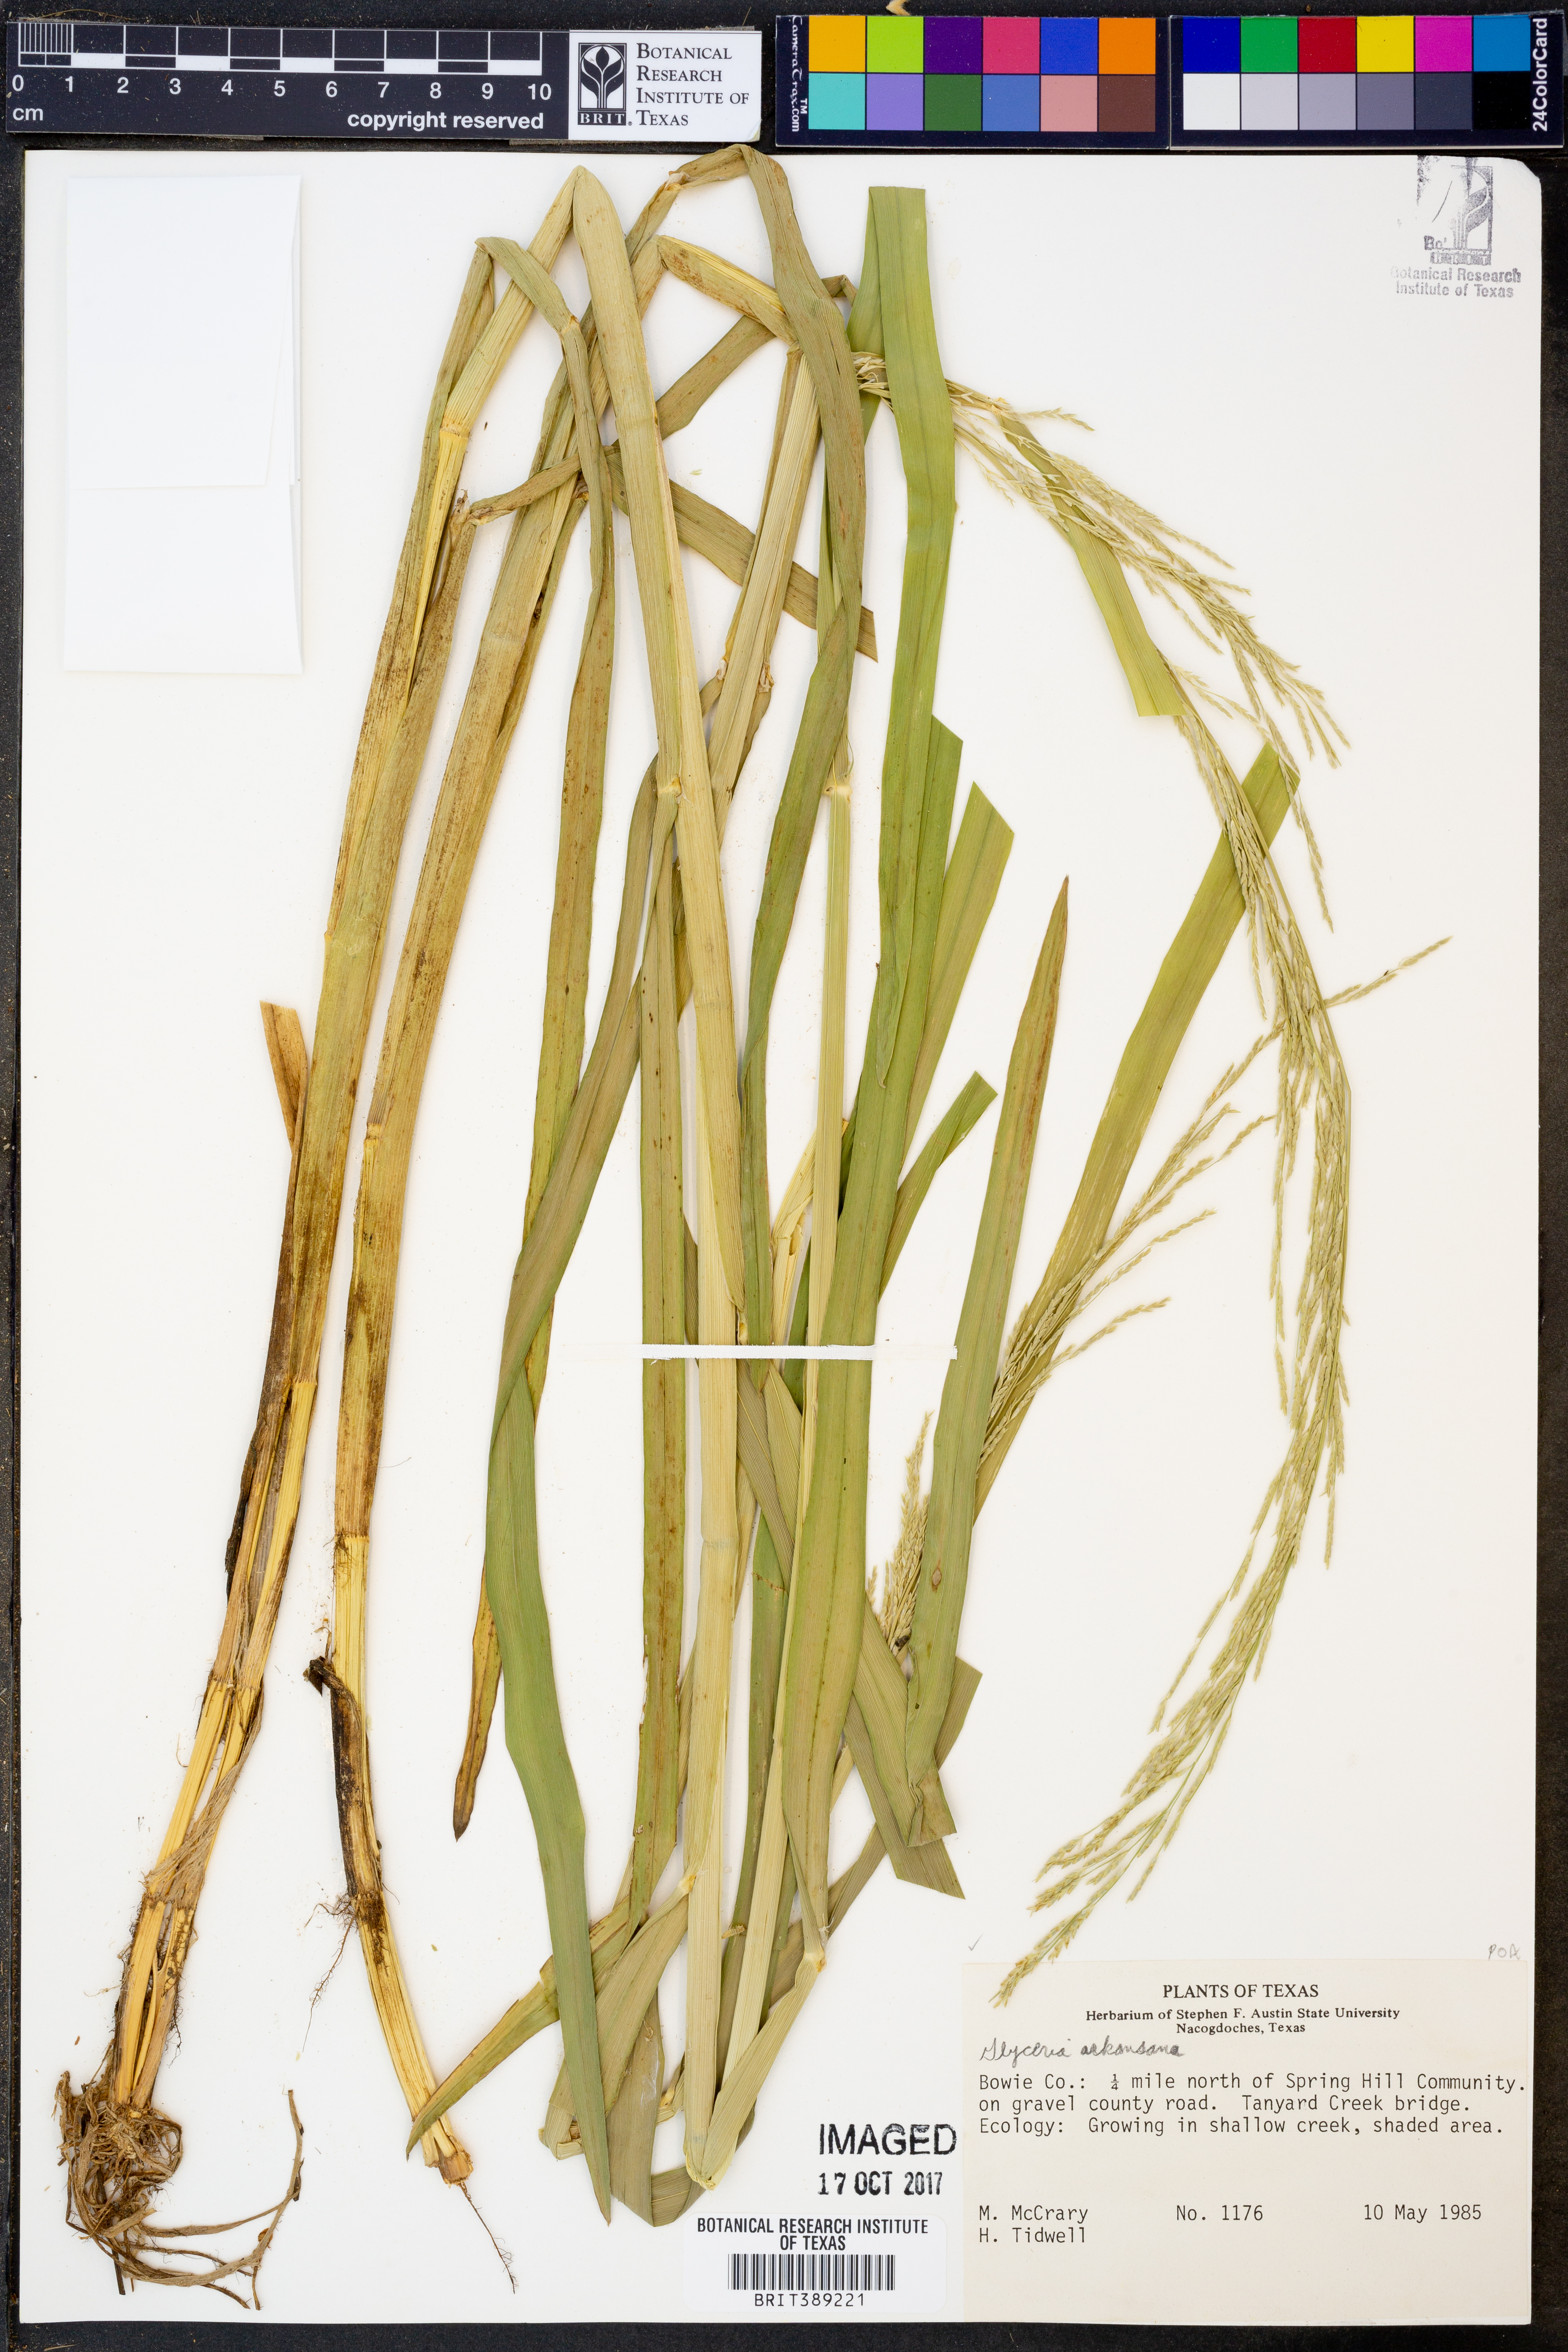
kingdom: Plantae
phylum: Tracheophyta
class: Liliopsida
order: Poales
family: Poaceae
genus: Glyceria
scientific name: Glyceria arkansana
